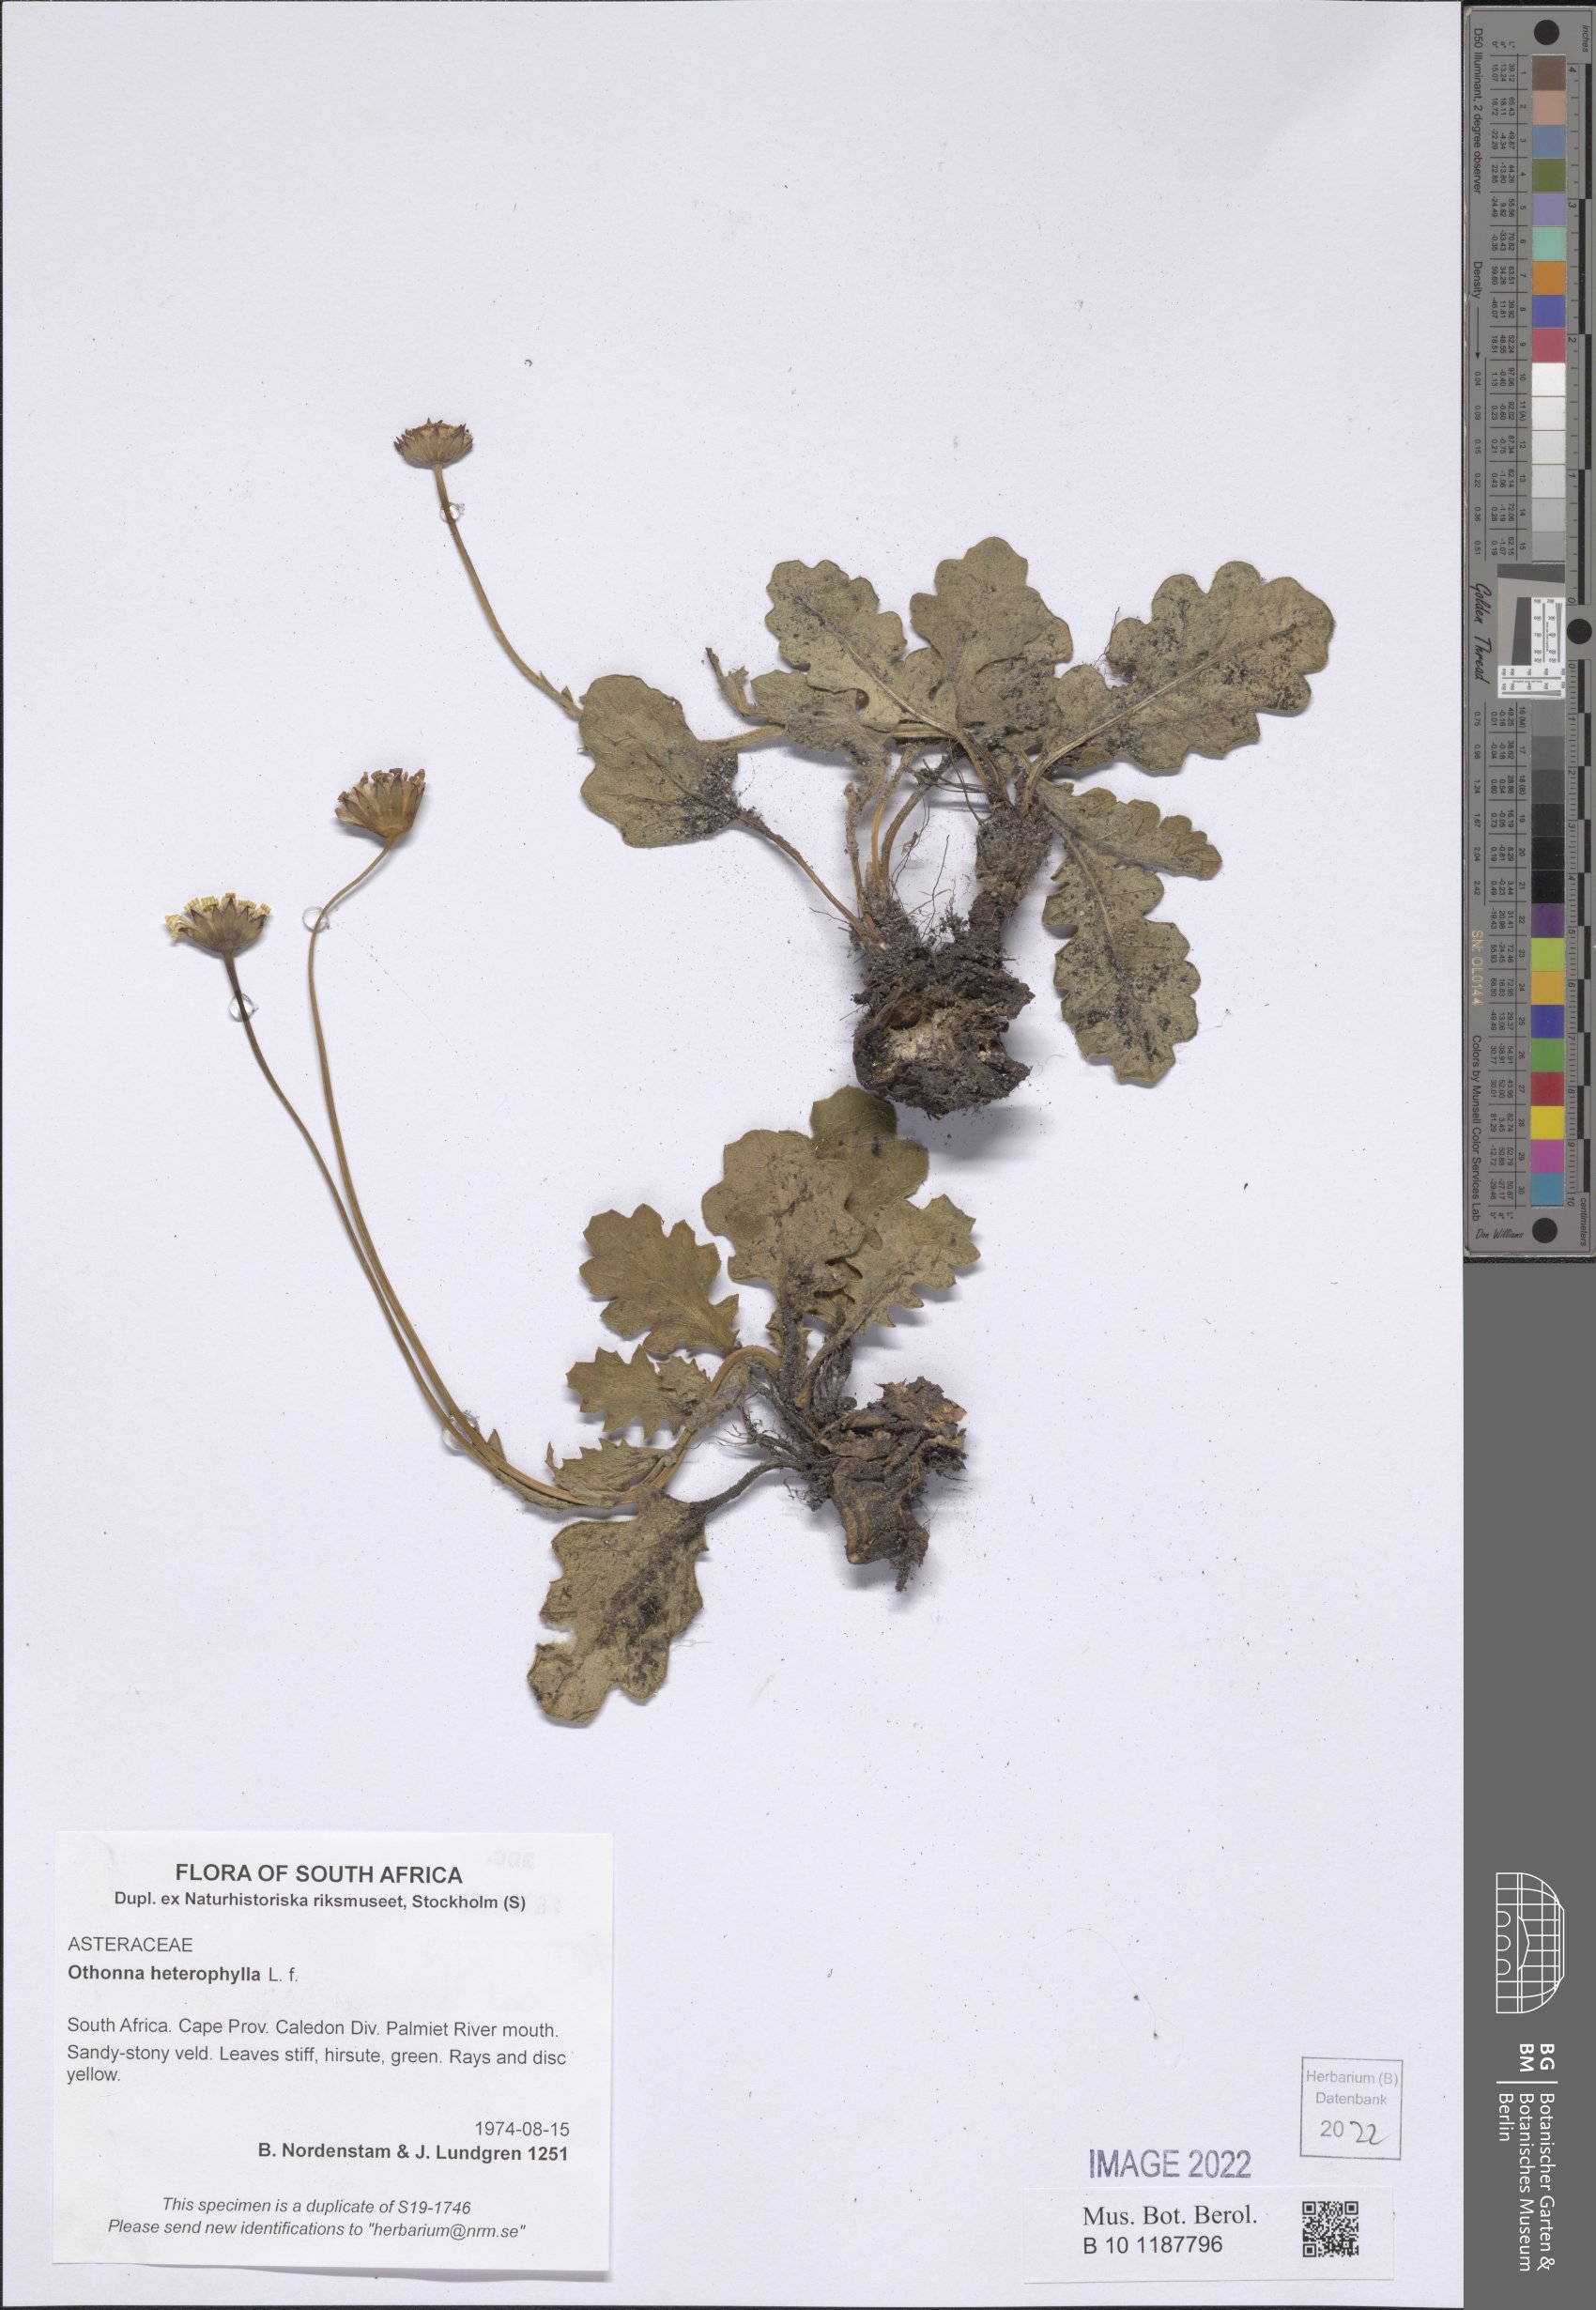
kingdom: Plantae
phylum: Tracheophyta
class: Magnoliopsida
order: Asterales
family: Asteraceae
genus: Othonna
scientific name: Othonna heterophylla
